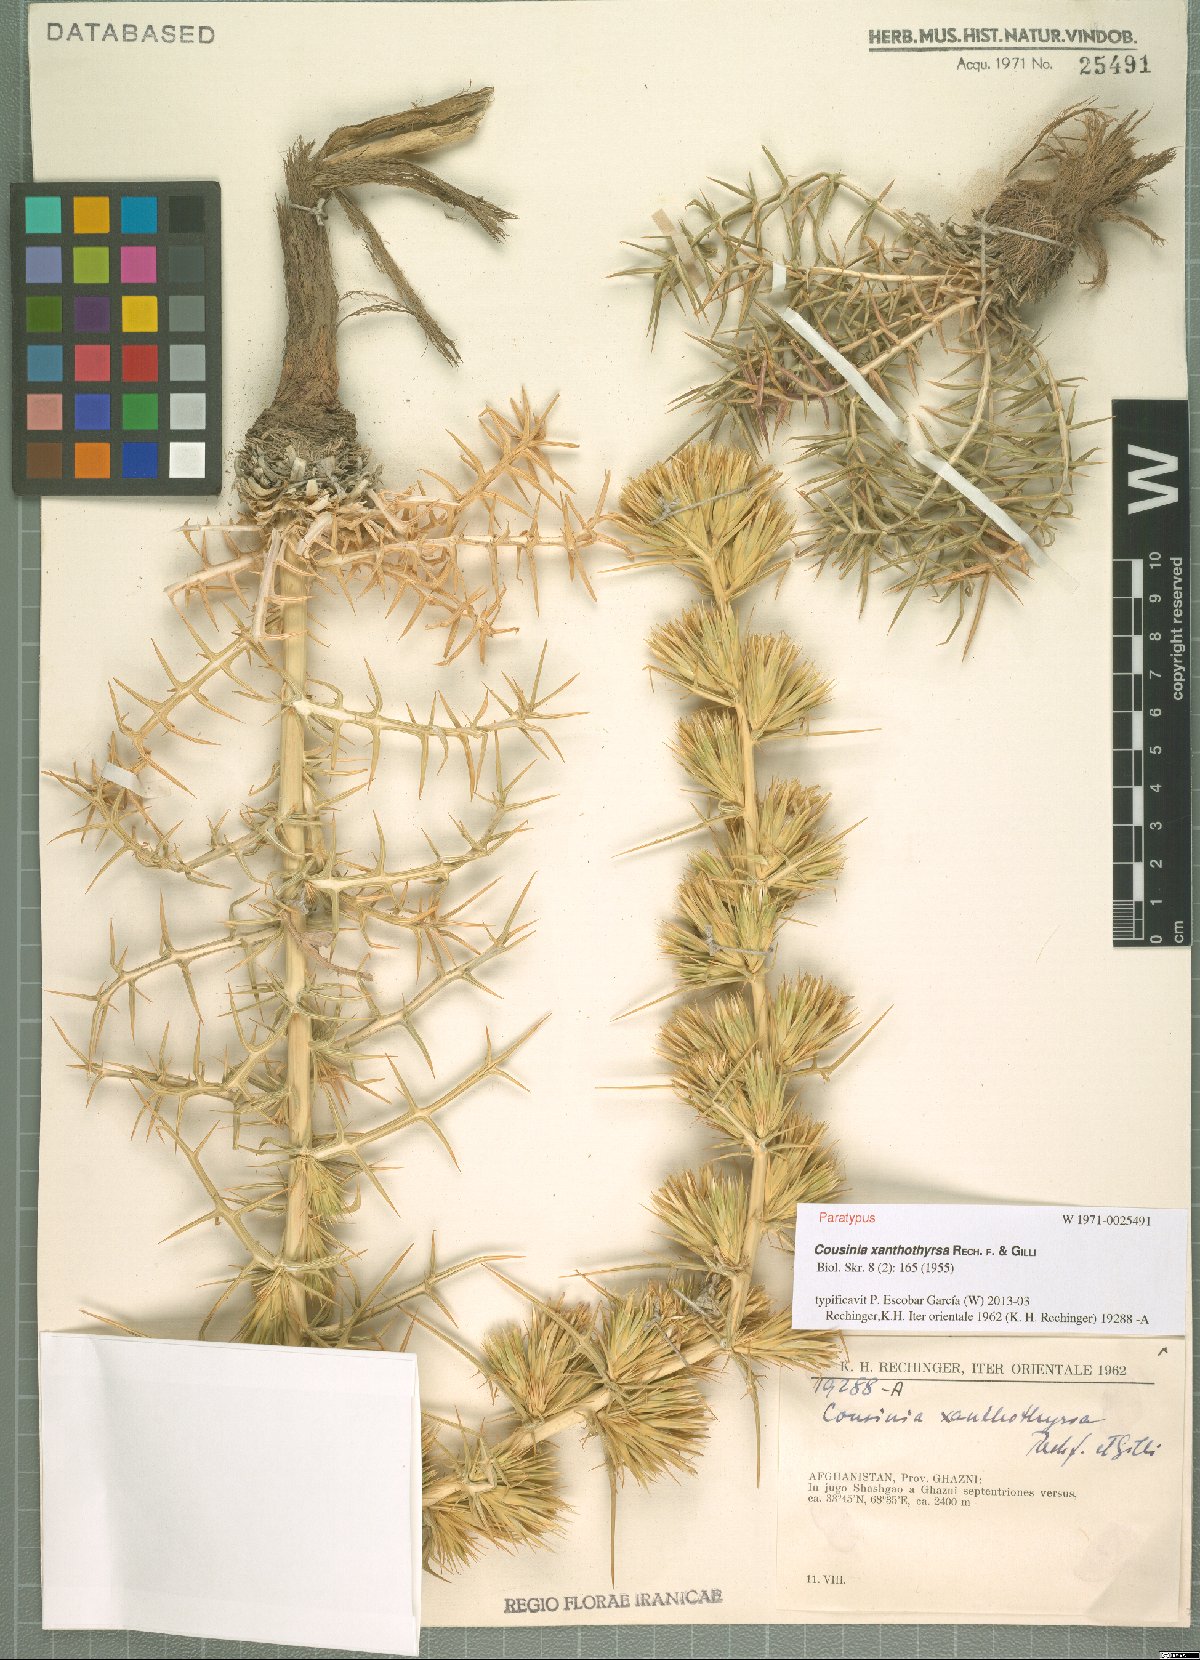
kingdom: Plantae
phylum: Tracheophyta
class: Magnoliopsida
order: Asterales
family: Asteraceae
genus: Cousinia
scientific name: Cousinia xanthothyrsa
